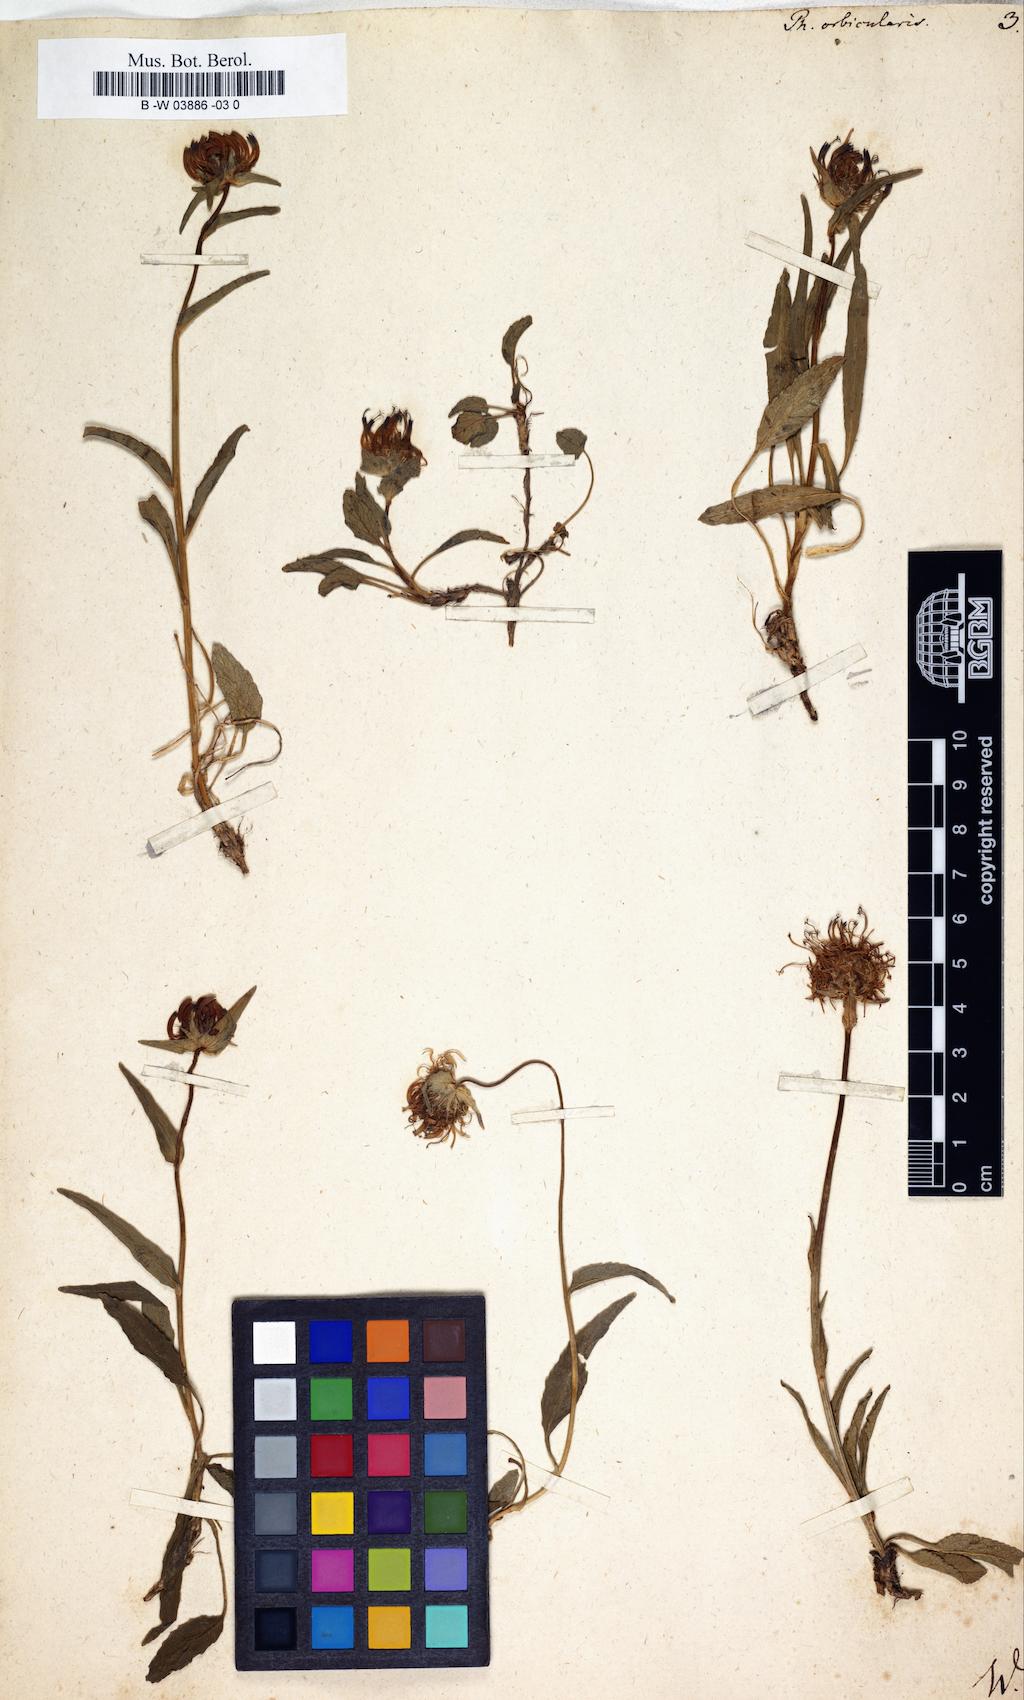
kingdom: Plantae
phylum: Tracheophyta
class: Magnoliopsida
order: Asterales
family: Campanulaceae
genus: Phyteuma
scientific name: Phyteuma orbiculare
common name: Round-headed rampion
